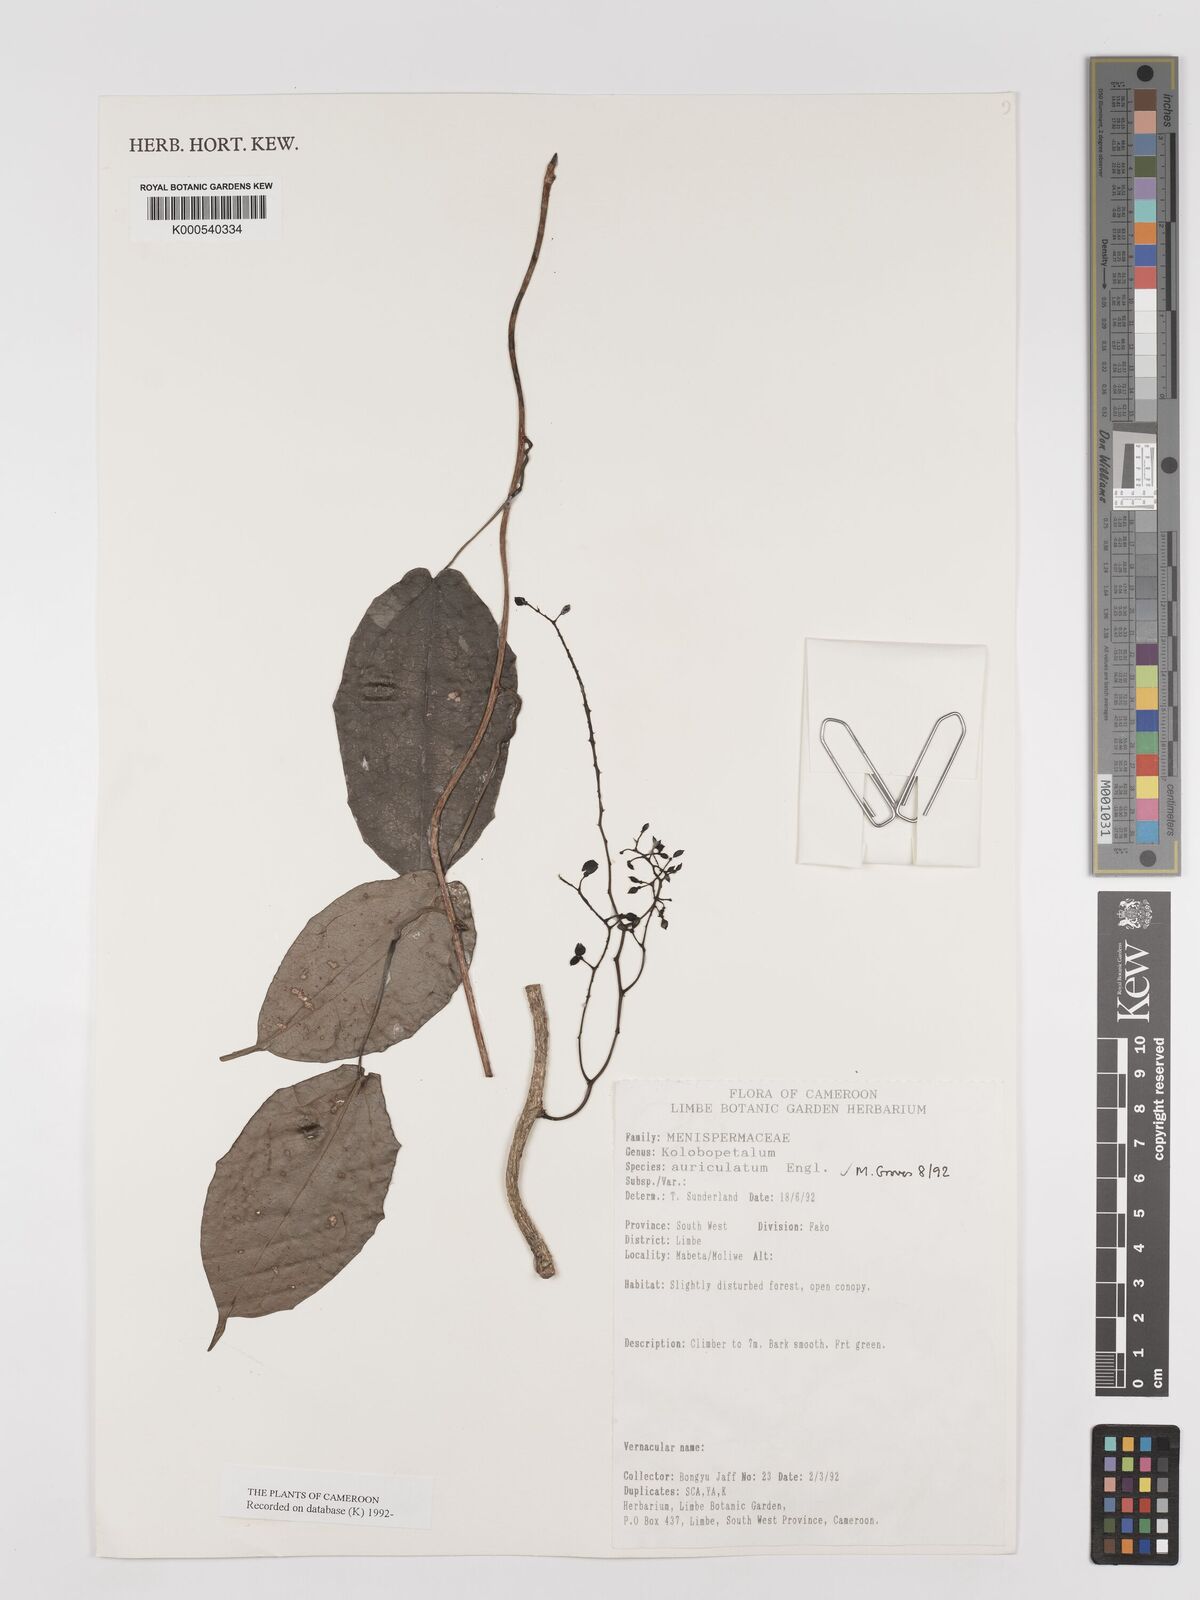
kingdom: Plantae
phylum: Tracheophyta
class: Magnoliopsida
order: Ranunculales
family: Menispermaceae
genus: Kolobopetalum
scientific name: Kolobopetalum auriculatum
